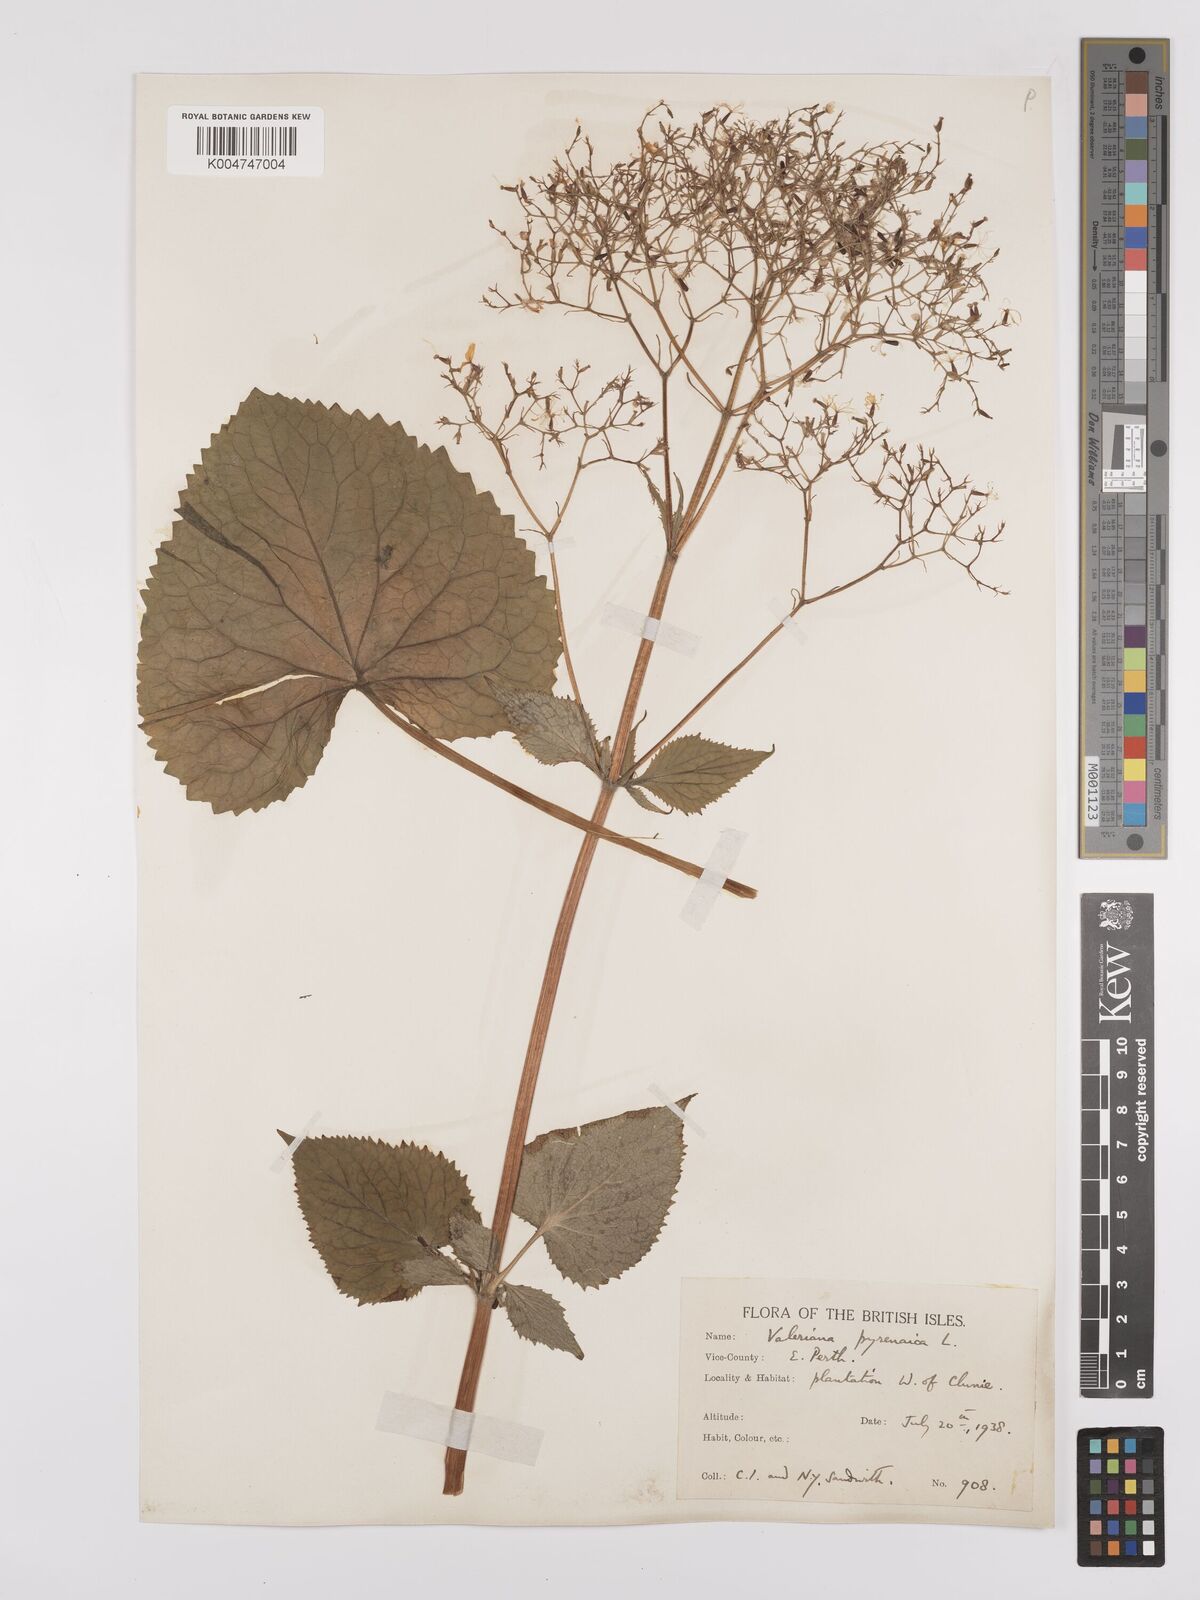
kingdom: Plantae
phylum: Tracheophyta
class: Magnoliopsida
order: Dipsacales
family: Caprifoliaceae
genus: Valeriana
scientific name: Valeriana pyrenaica
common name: Pyrenean valerian
